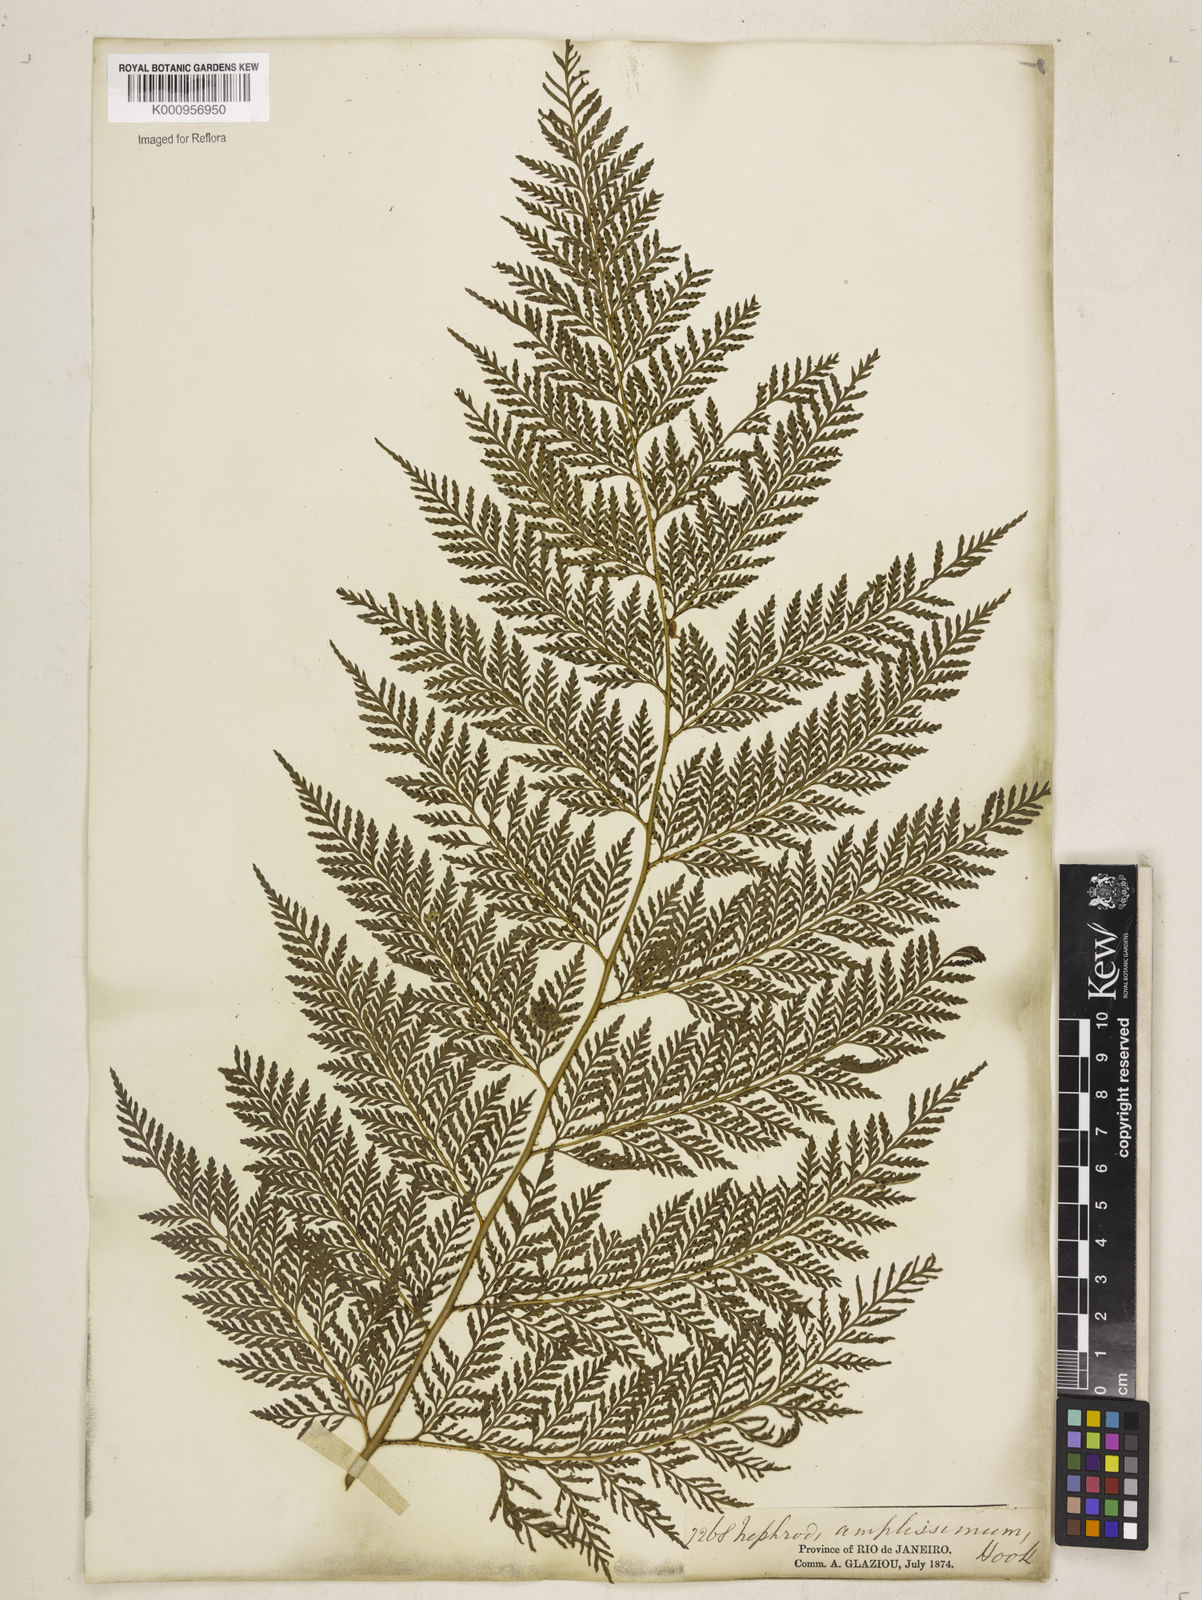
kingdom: Plantae
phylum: Tracheophyta
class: Polypodiopsida
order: Polypodiales
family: Dryopteridaceae
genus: Lastreopsis
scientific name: Lastreopsis amplissima
